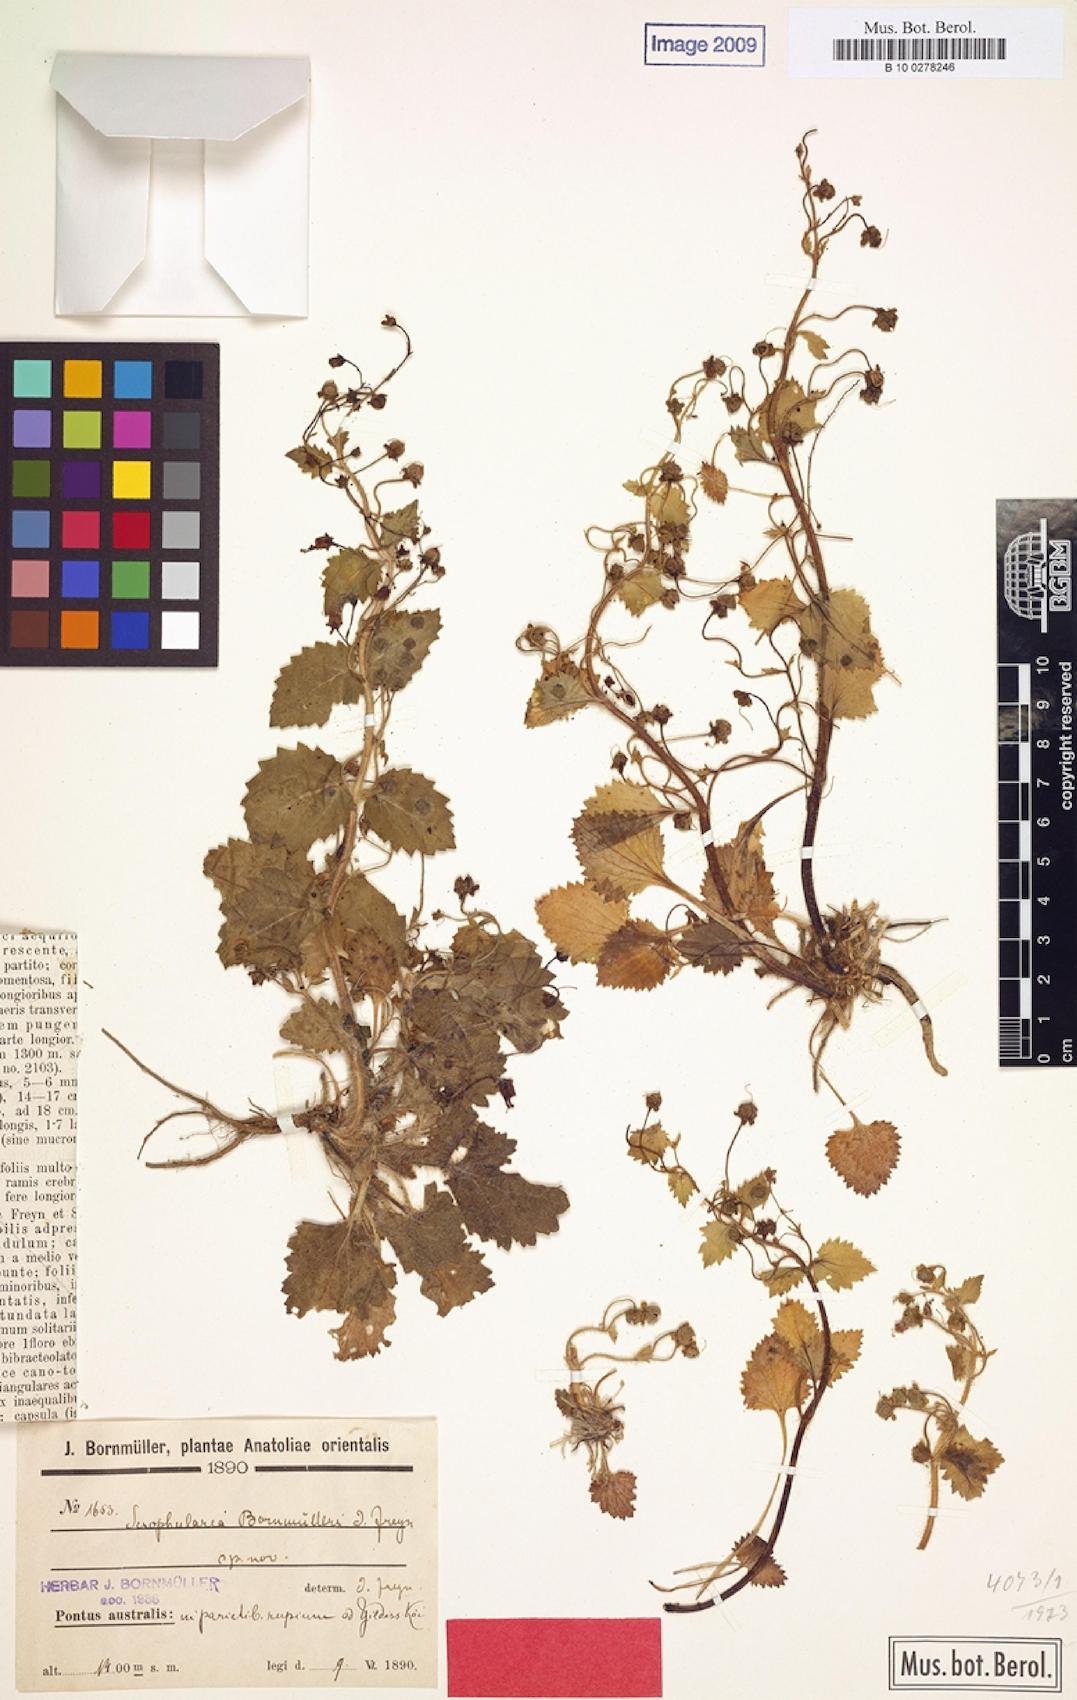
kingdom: Plantae
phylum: Tracheophyta
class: Magnoliopsida
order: Lamiales
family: Scrophulariaceae
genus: Scrophularia
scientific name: Scrophularia kotschyana
